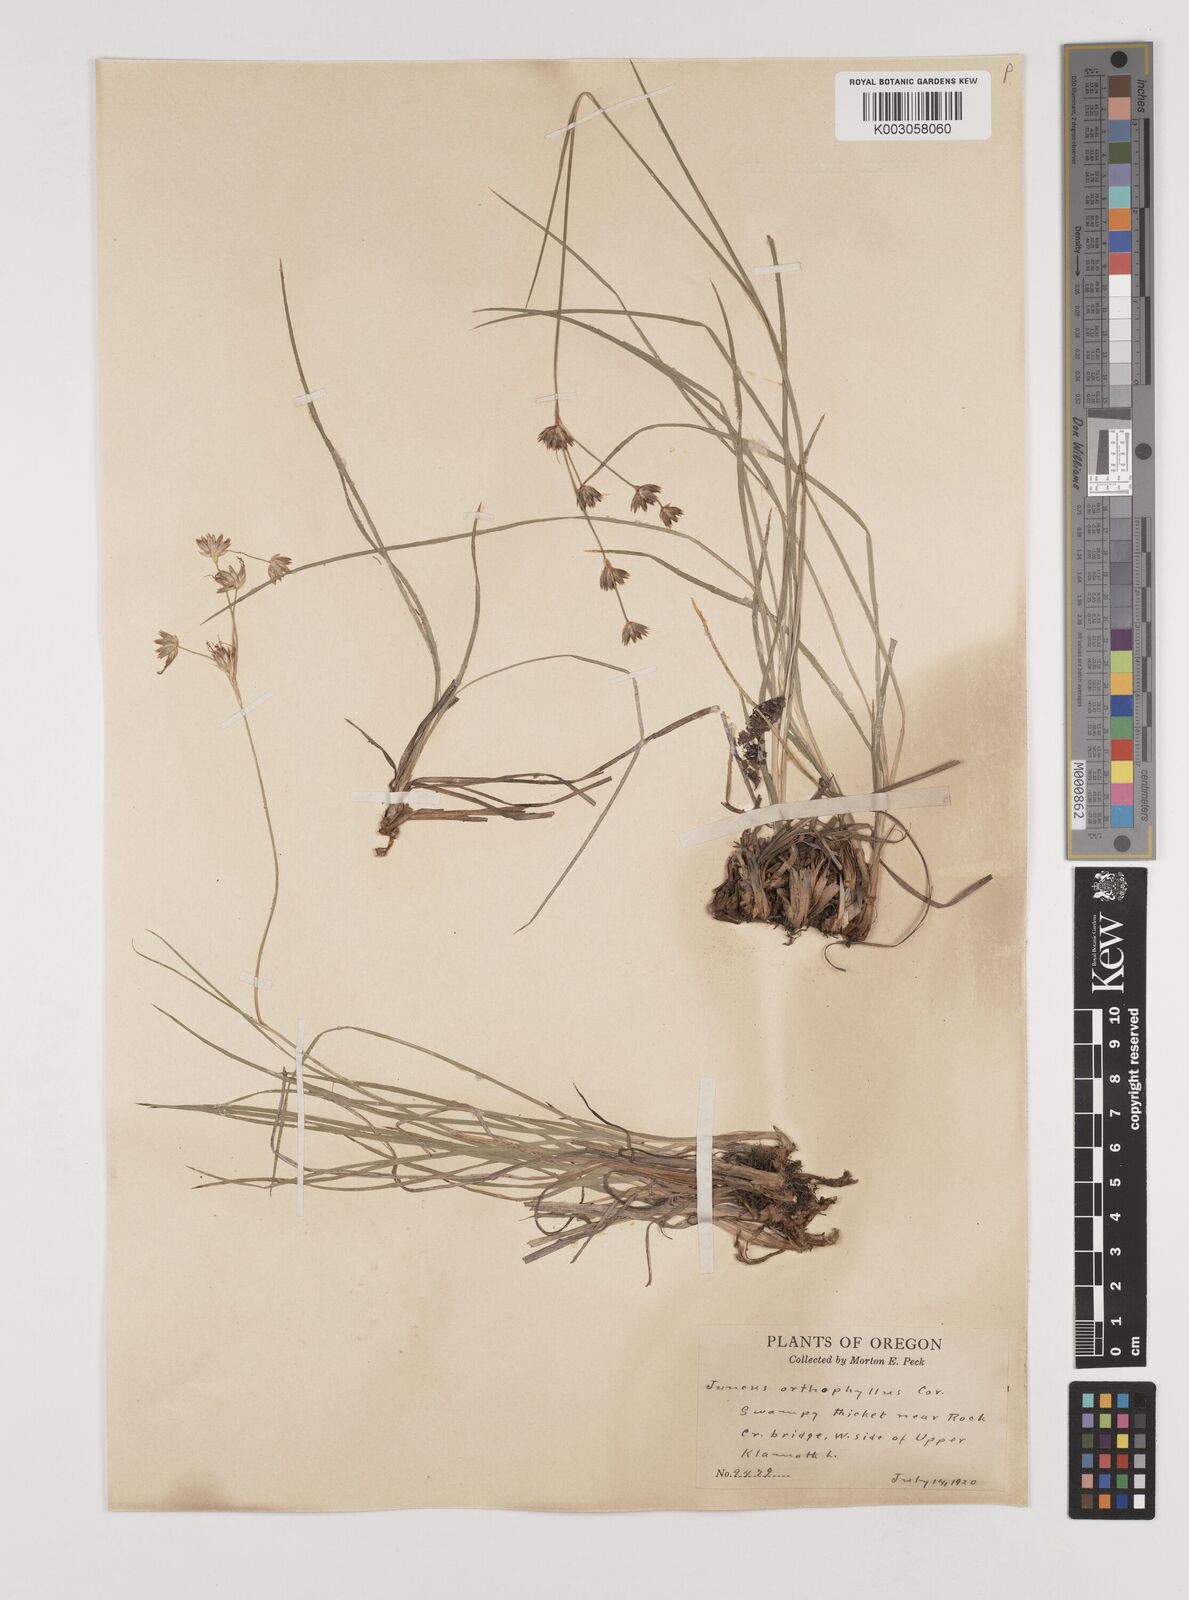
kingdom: Plantae
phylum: Tracheophyta
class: Liliopsida
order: Poales
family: Juncaceae
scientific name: Juncaceae
